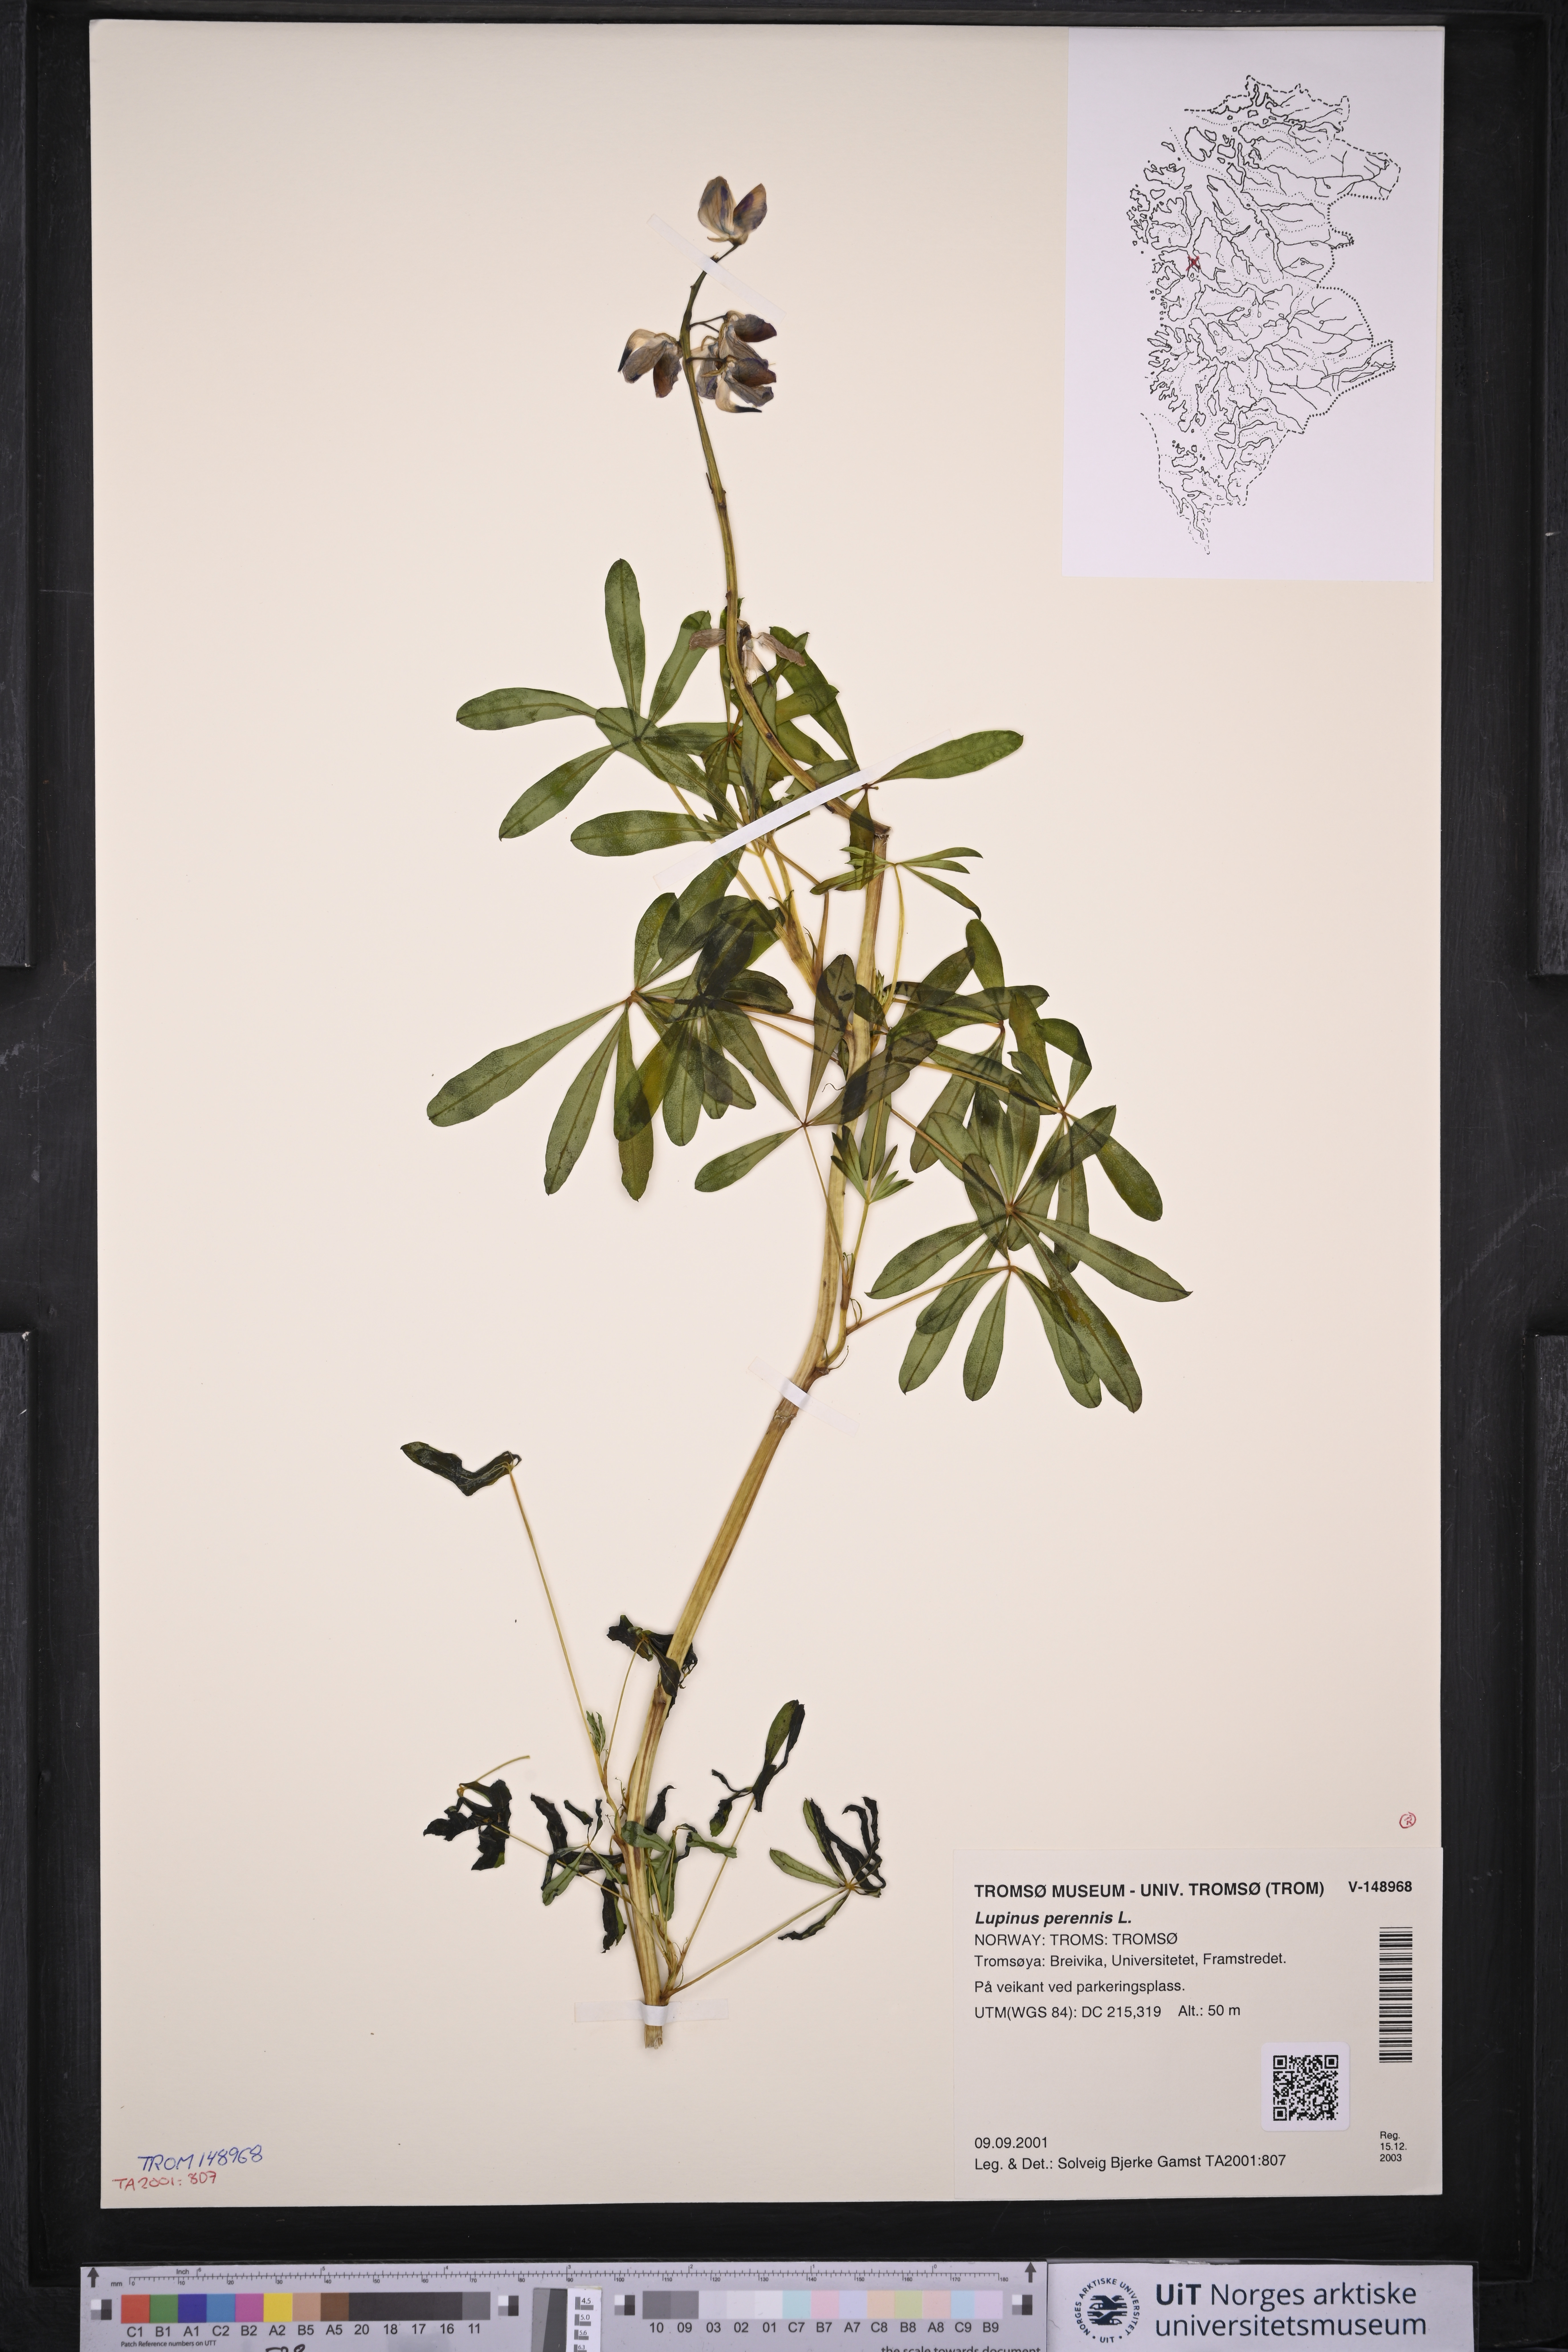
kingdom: Plantae
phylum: Tracheophyta
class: Magnoliopsida
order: Fabales
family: Fabaceae
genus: Lupinus
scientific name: Lupinus perennis
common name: Sundial lupine
